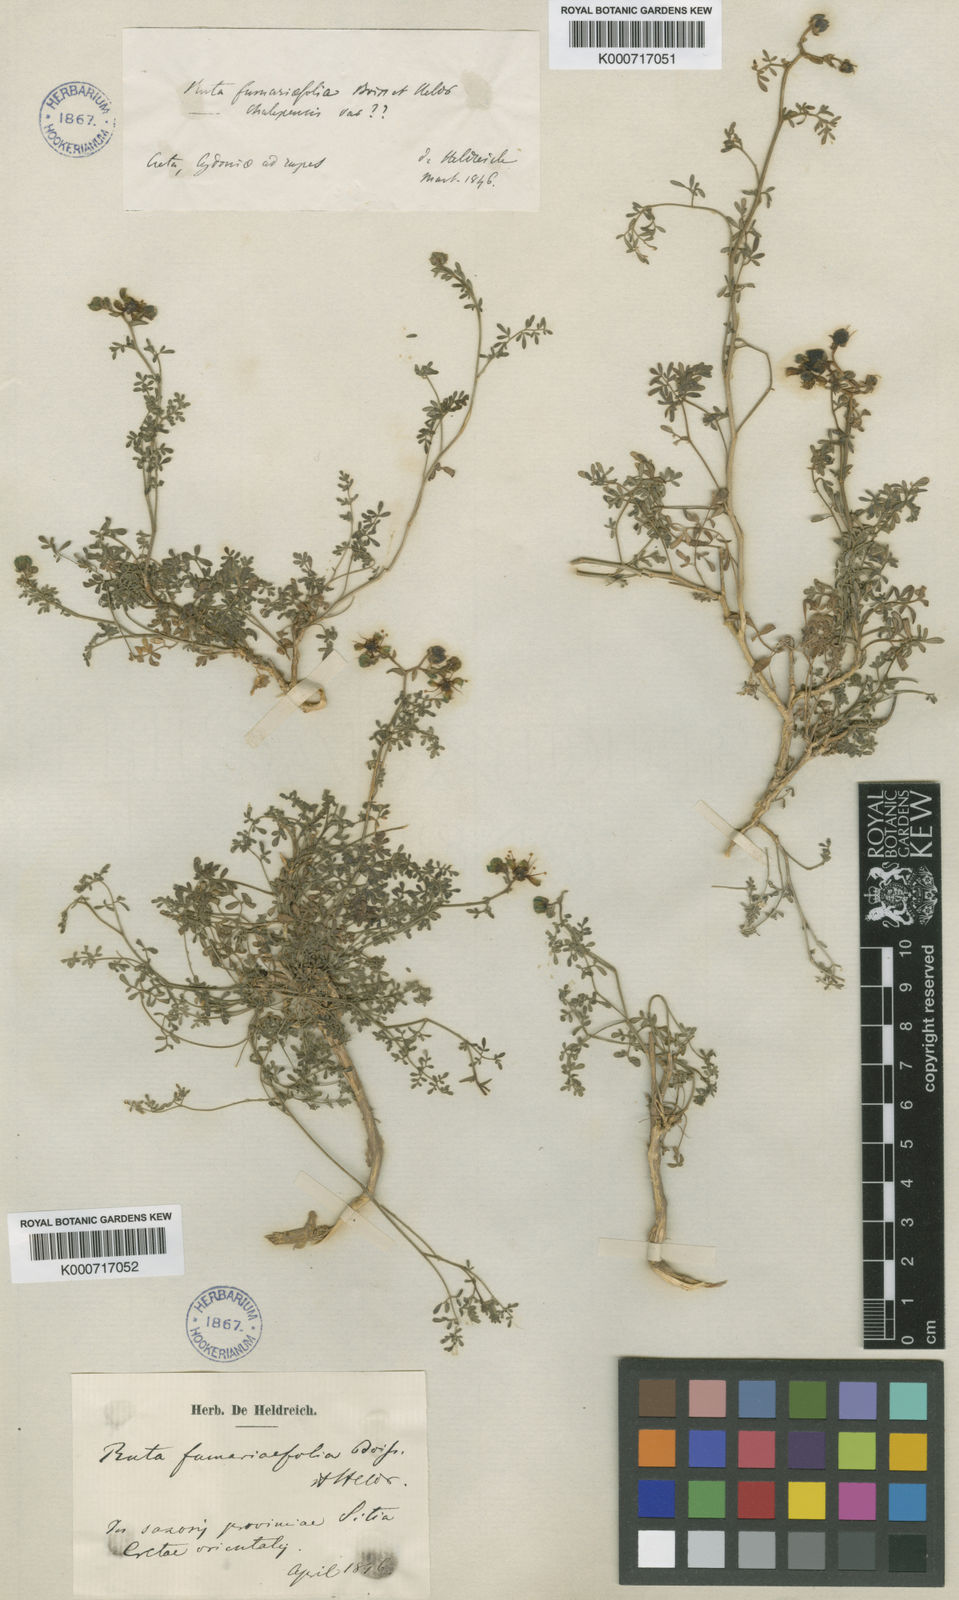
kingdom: Plantae
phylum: Tracheophyta
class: Magnoliopsida
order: Sapindales
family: Rutaceae
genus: Ruta
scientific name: Ruta
